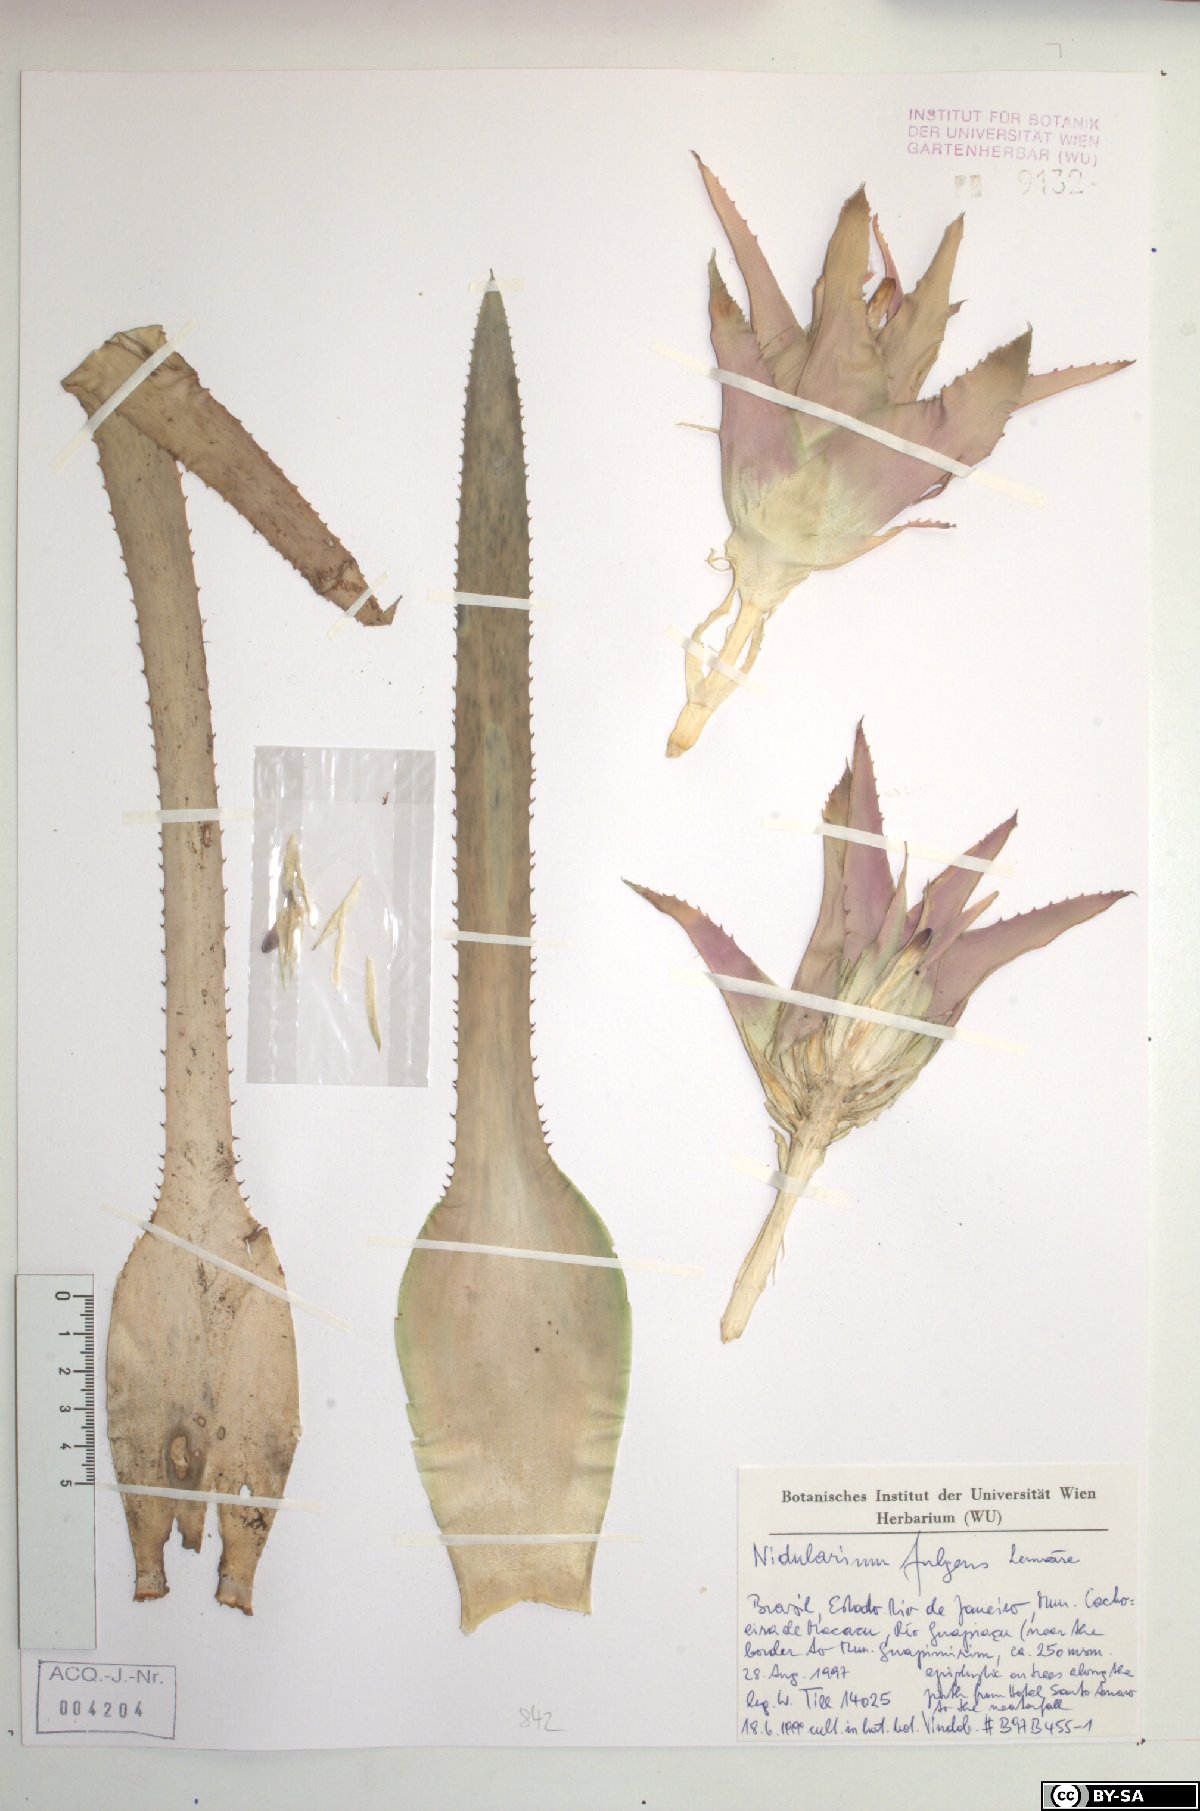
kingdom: Plantae
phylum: Tracheophyta
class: Liliopsida
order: Poales
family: Bromeliaceae
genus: Nidularium
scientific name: Nidularium fulgens
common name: Blushing bromeliad
